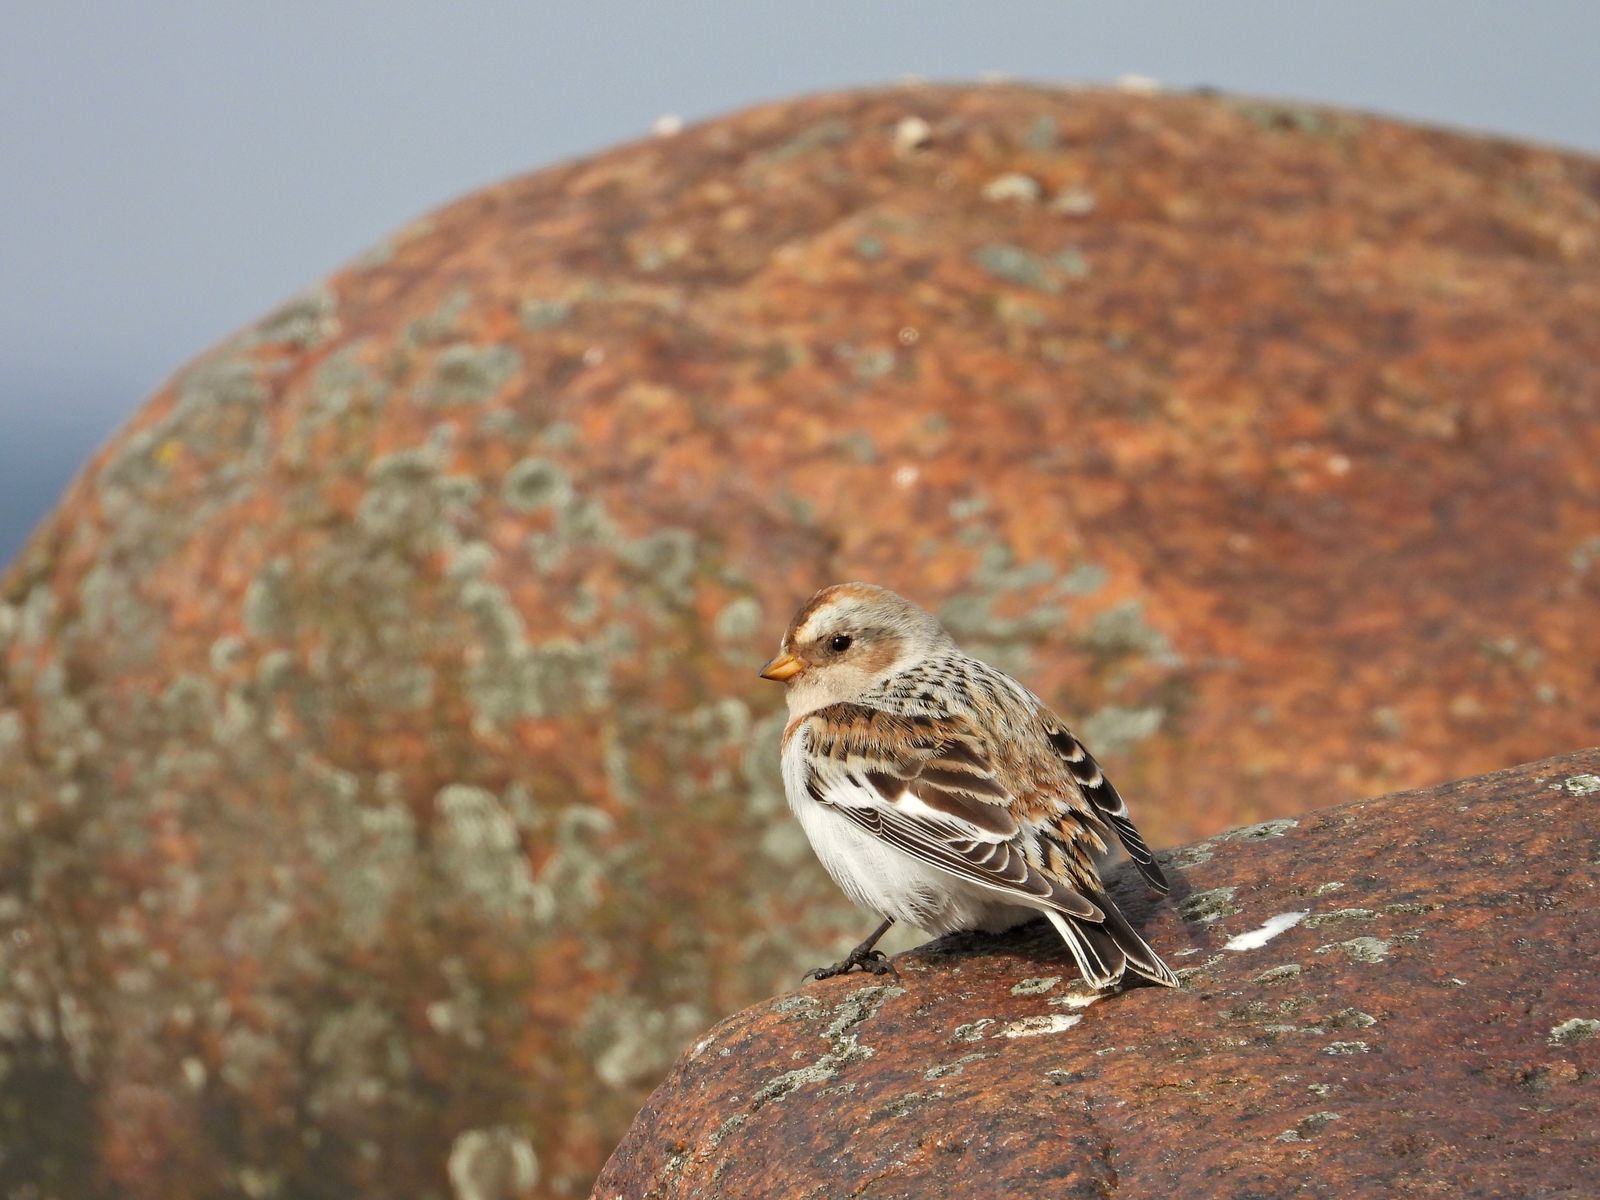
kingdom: Animalia
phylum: Chordata
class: Aves
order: Passeriformes
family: Calcariidae
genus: Plectrophenax
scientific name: Plectrophenax nivalis
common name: Snow bunting
